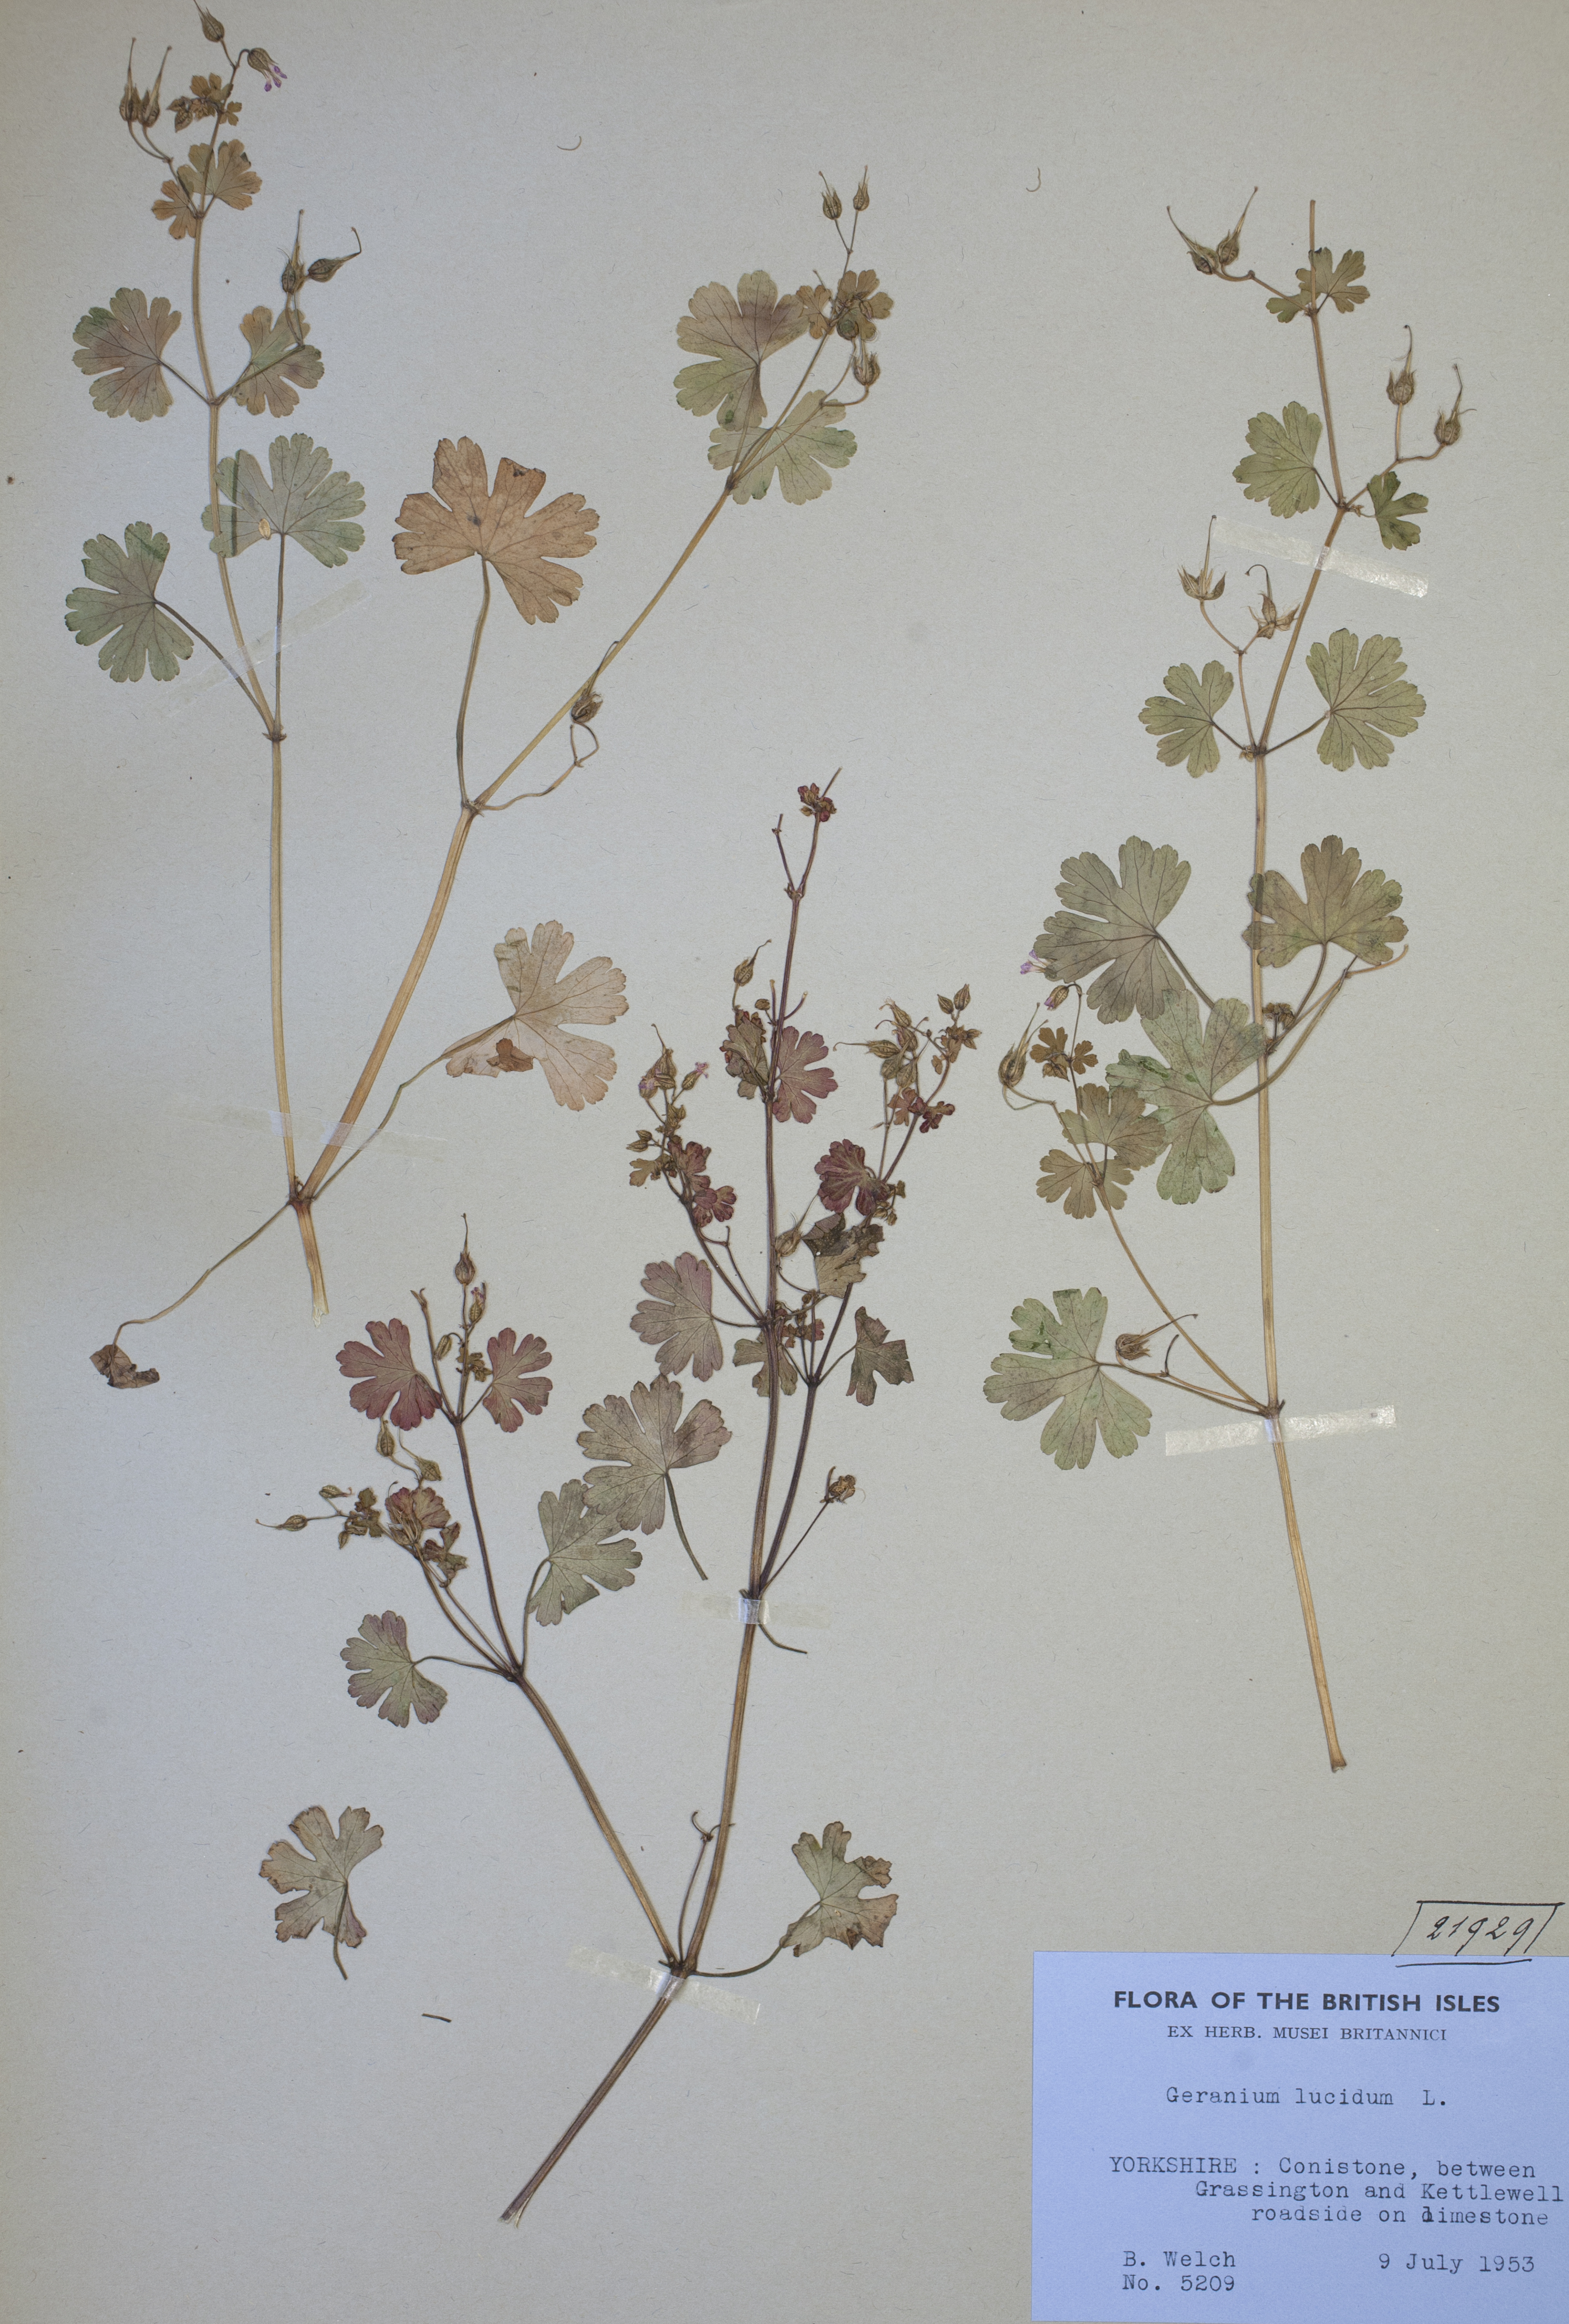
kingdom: Plantae
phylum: Tracheophyta
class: Magnoliopsida
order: Geraniales
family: Geraniaceae
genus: Geranium
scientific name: Geranium lucidum
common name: Shining crane's-bill
